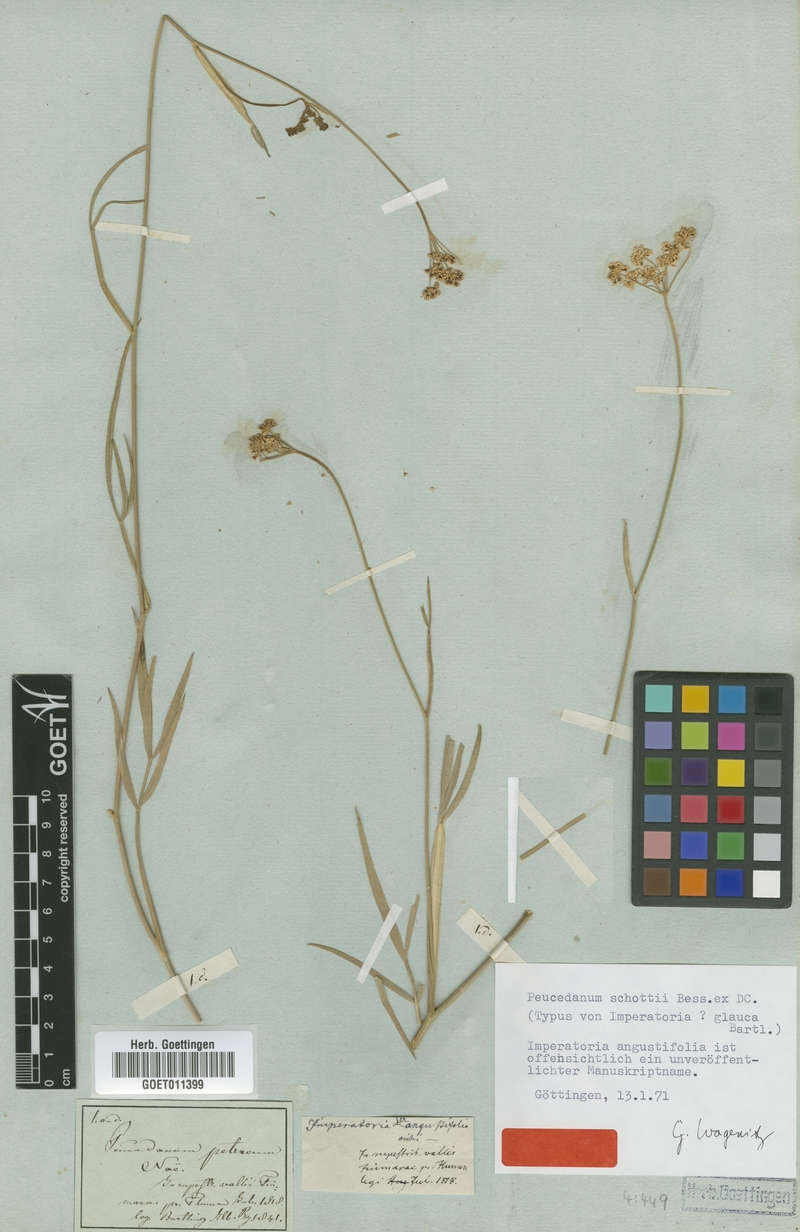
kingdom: Plantae
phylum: Tracheophyta
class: Magnoliopsida
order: Apiales
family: Apiaceae
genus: Dichoropetalum
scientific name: Dichoropetalum schottii
